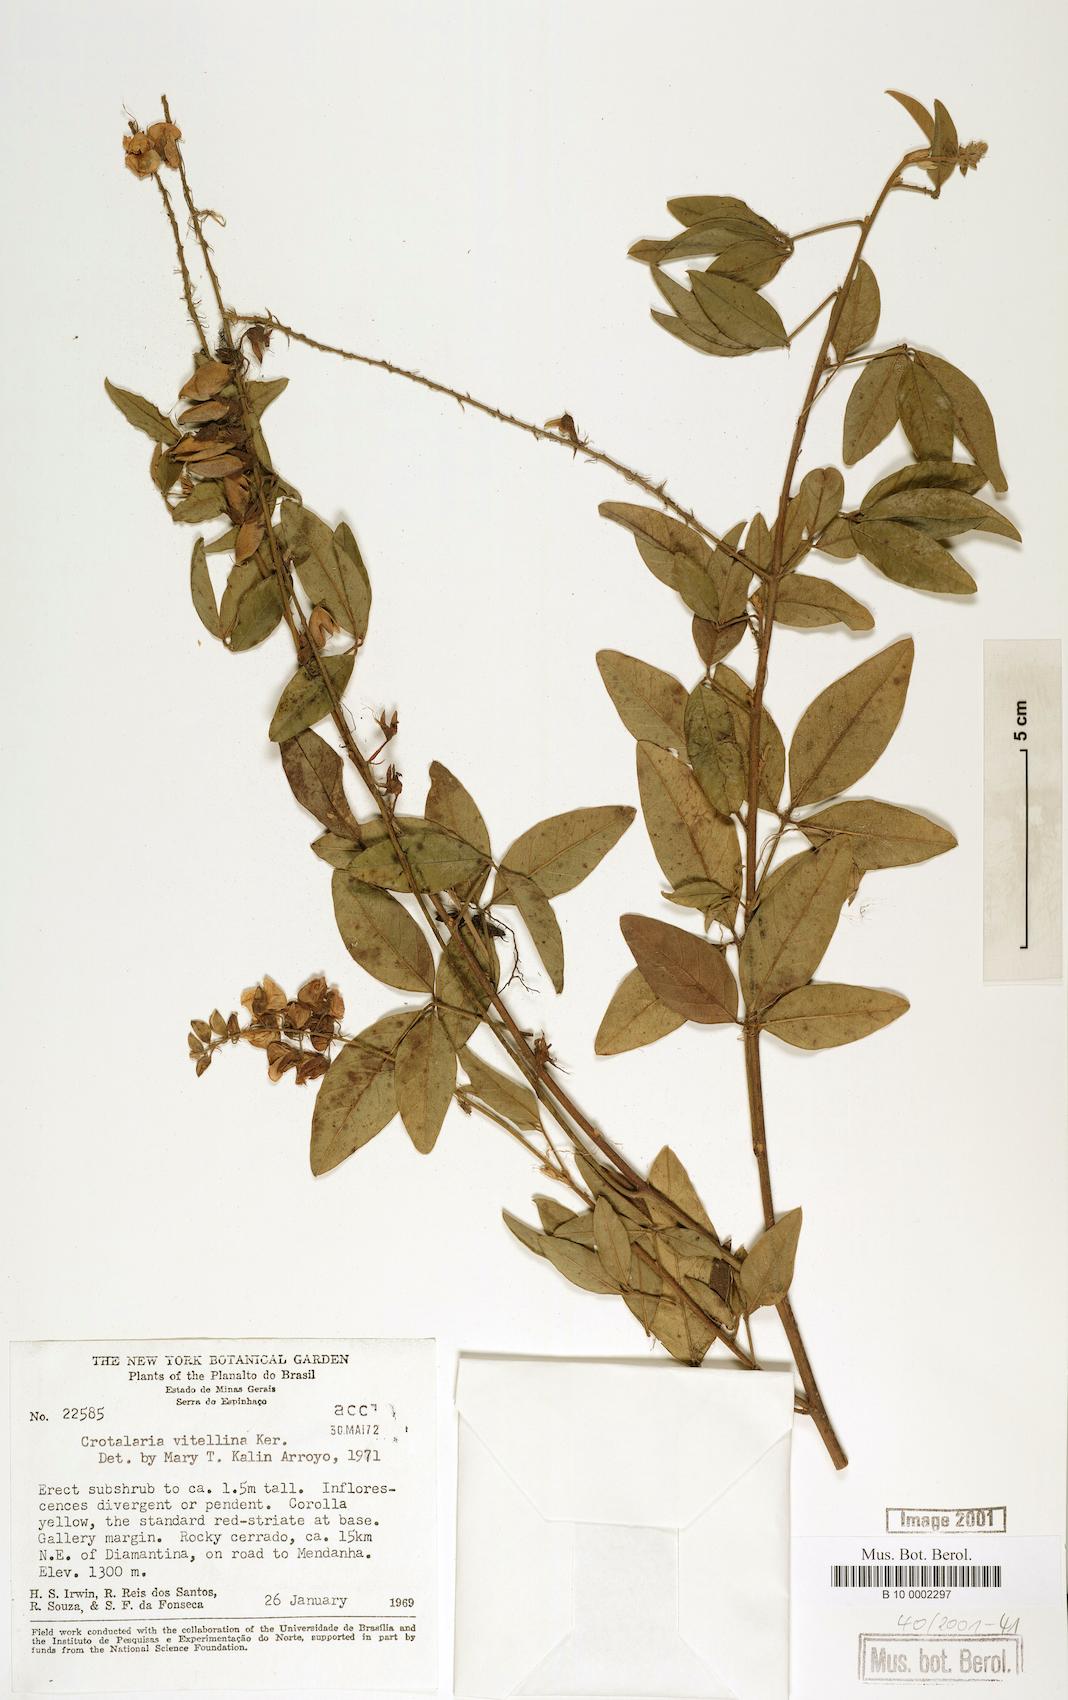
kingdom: Plantae
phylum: Tracheophyta
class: Magnoliopsida
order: Fabales
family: Fabaceae
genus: Crotalaria
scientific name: Crotalaria vitellina
